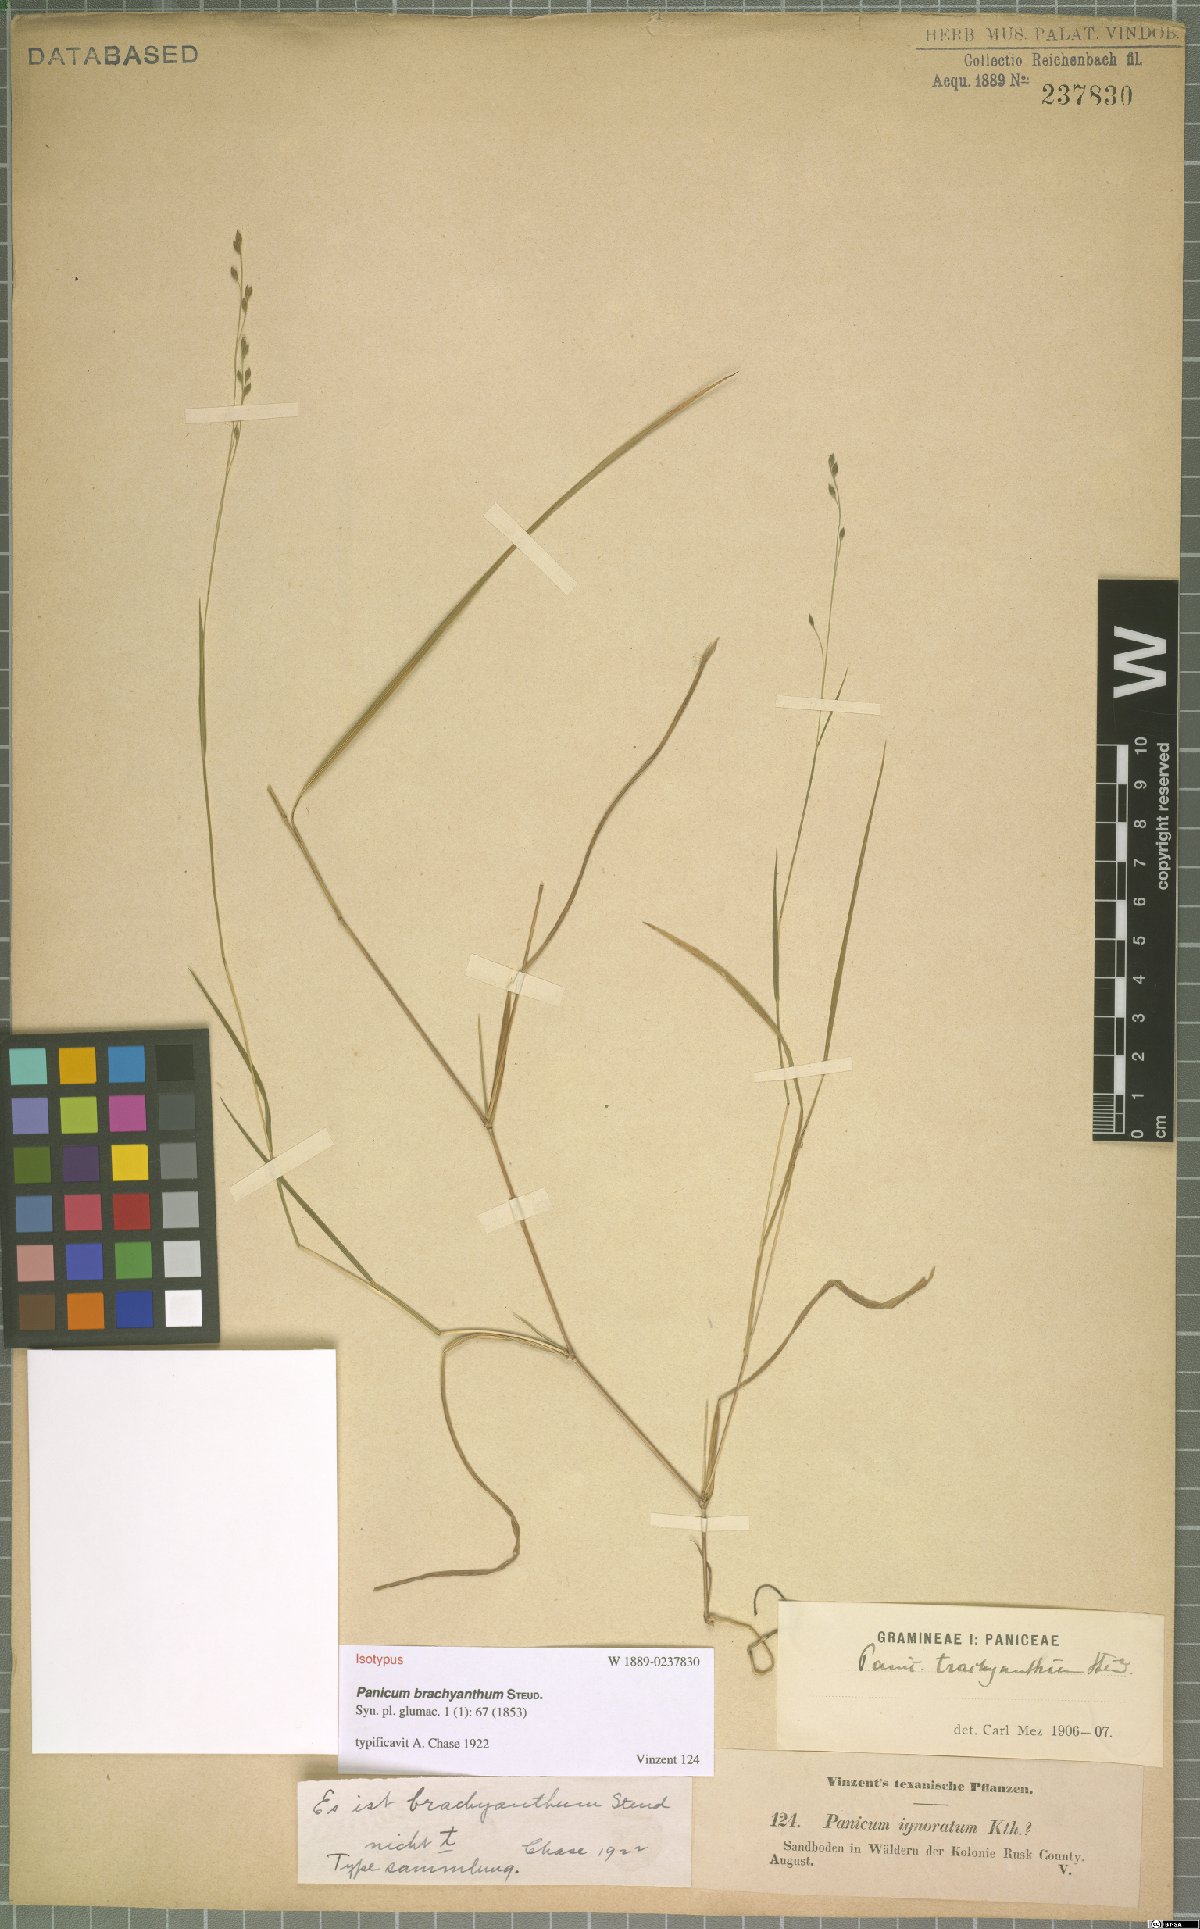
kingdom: Plantae
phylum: Tracheophyta
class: Liliopsida
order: Poales
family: Poaceae
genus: Kellochloa
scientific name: Kellochloa brachyantha
